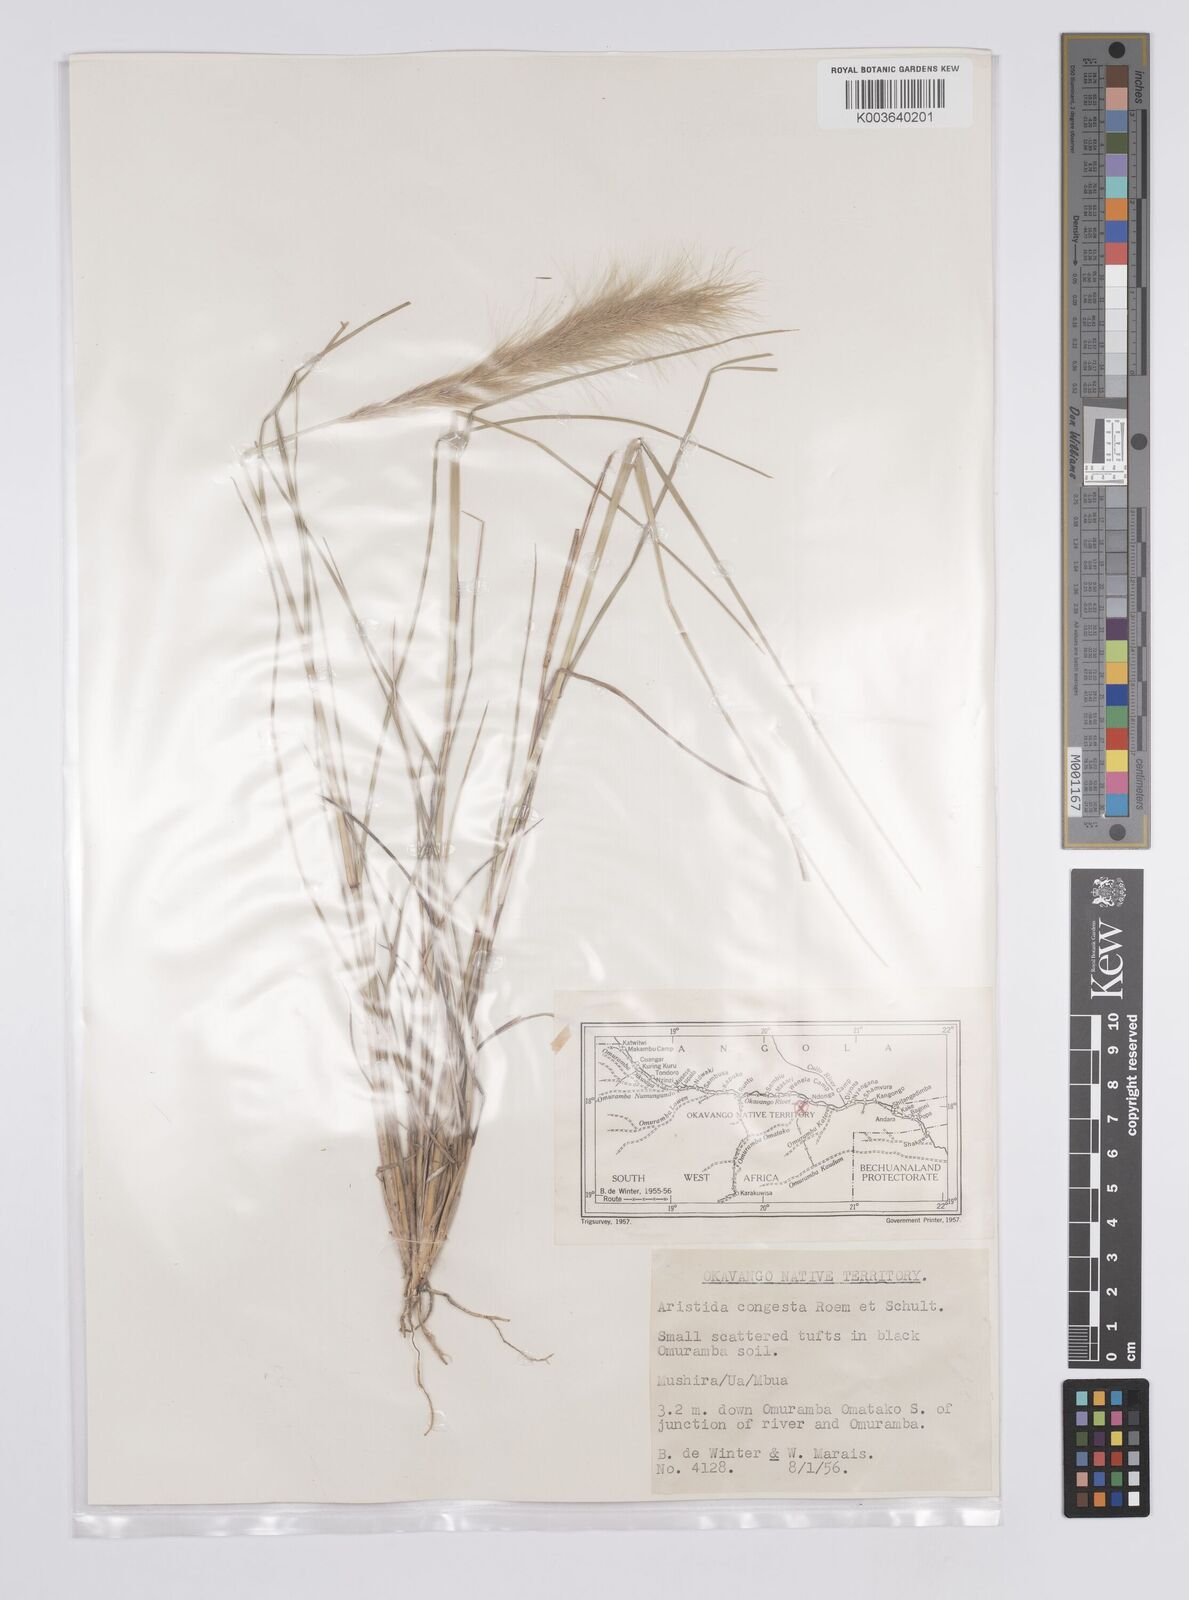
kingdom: Plantae
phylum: Tracheophyta
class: Liliopsida
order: Poales
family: Poaceae
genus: Aristida
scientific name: Aristida congesta
